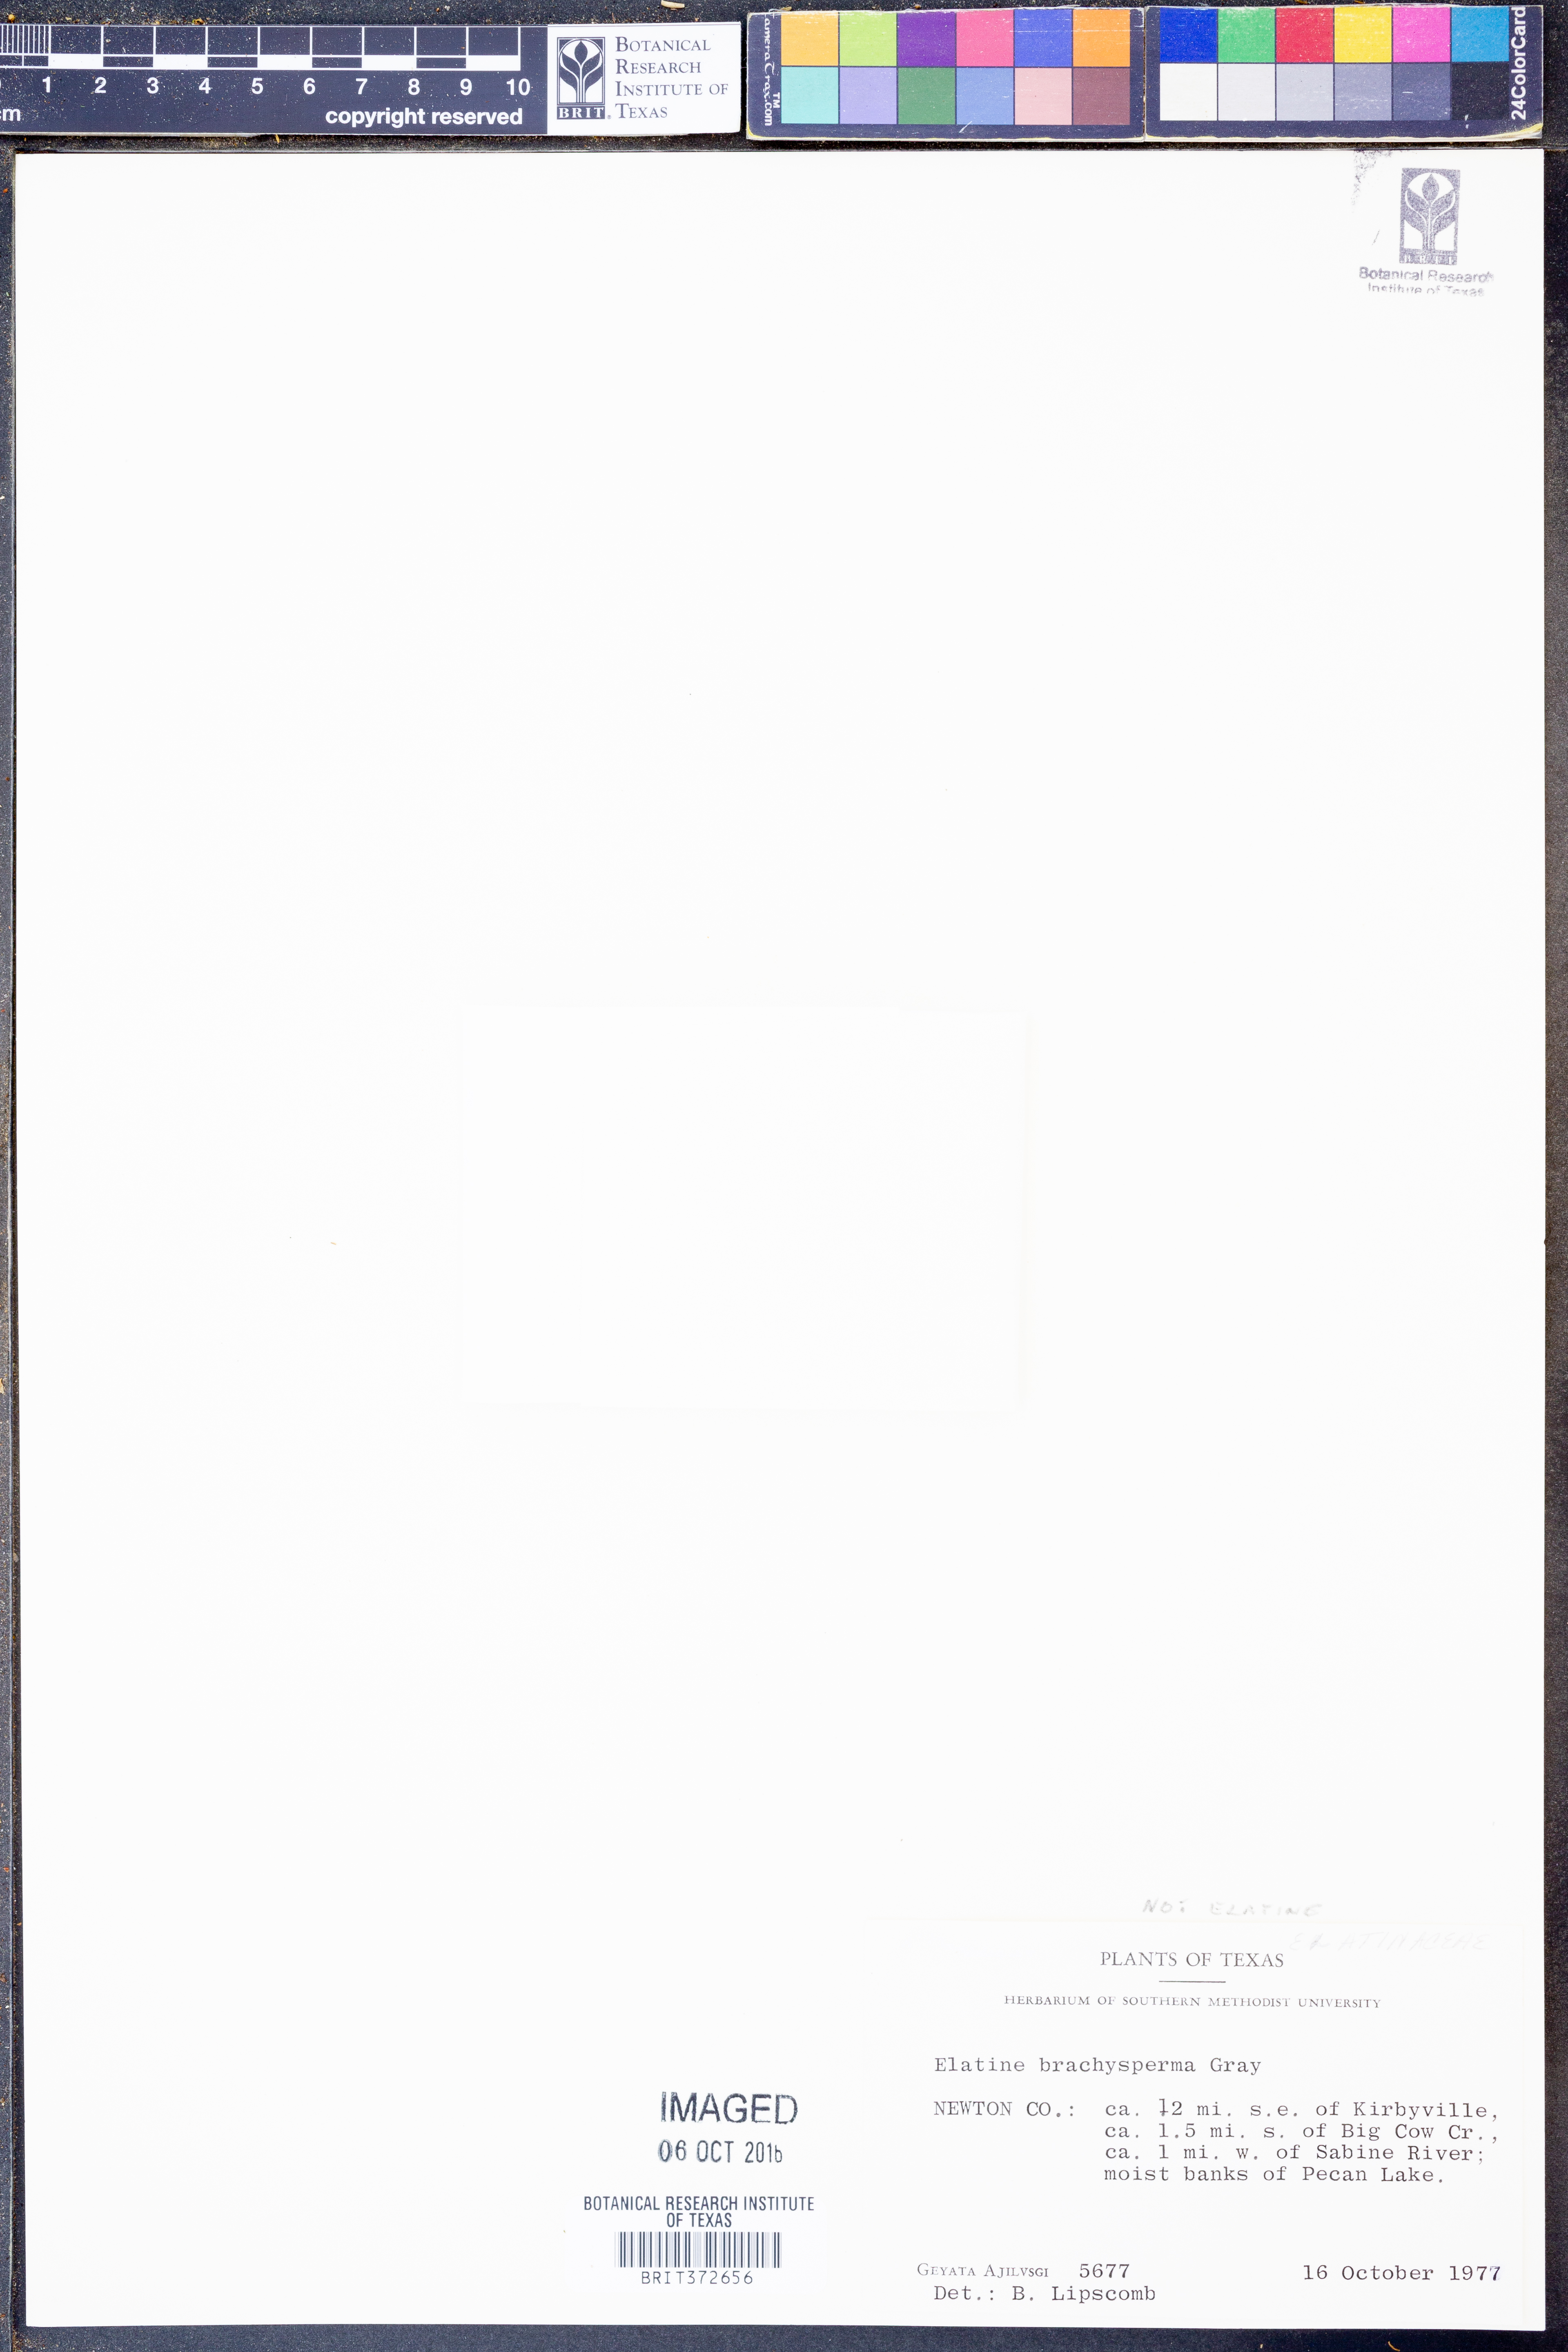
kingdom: Plantae
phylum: Tracheophyta
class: Magnoliopsida
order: Malpighiales
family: Elatinaceae
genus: Elatine
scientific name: Elatine brachysperma
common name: Short-fruited waterwort
